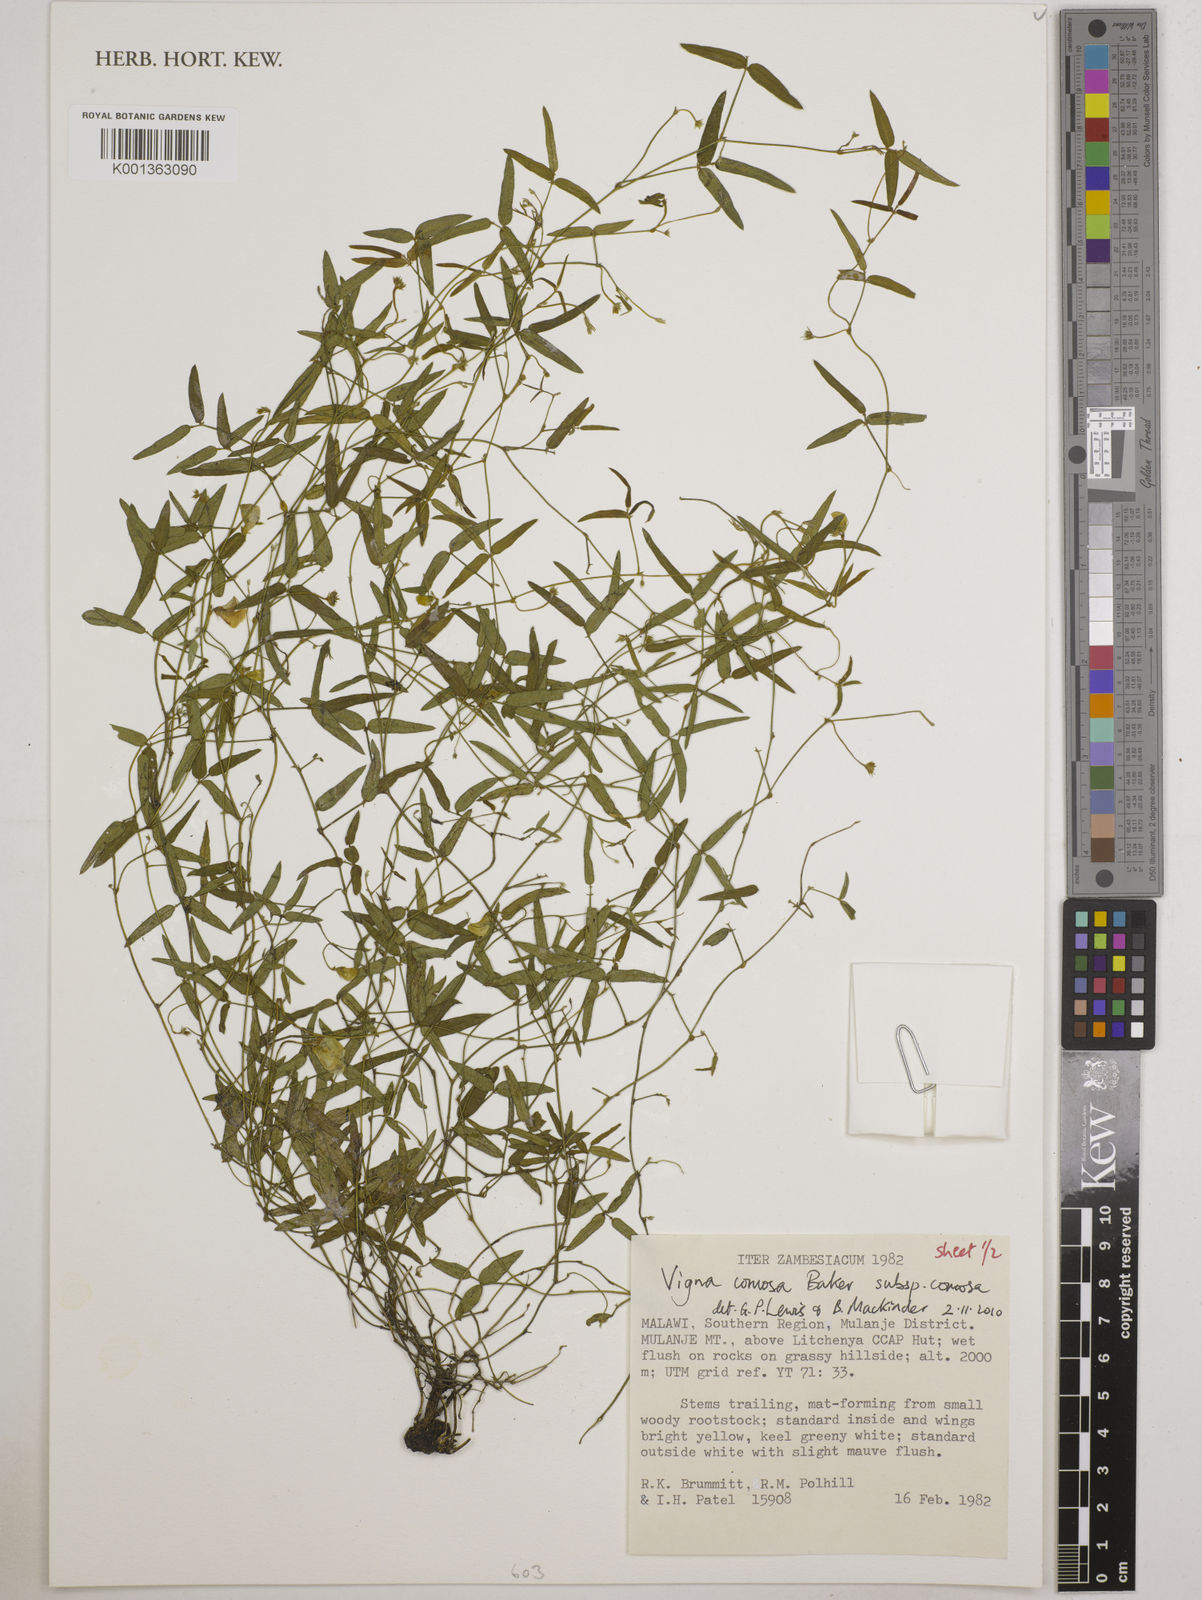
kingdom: Plantae
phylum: Tracheophyta
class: Magnoliopsida
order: Fabales
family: Fabaceae
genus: Vigna
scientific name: Vigna comosa
